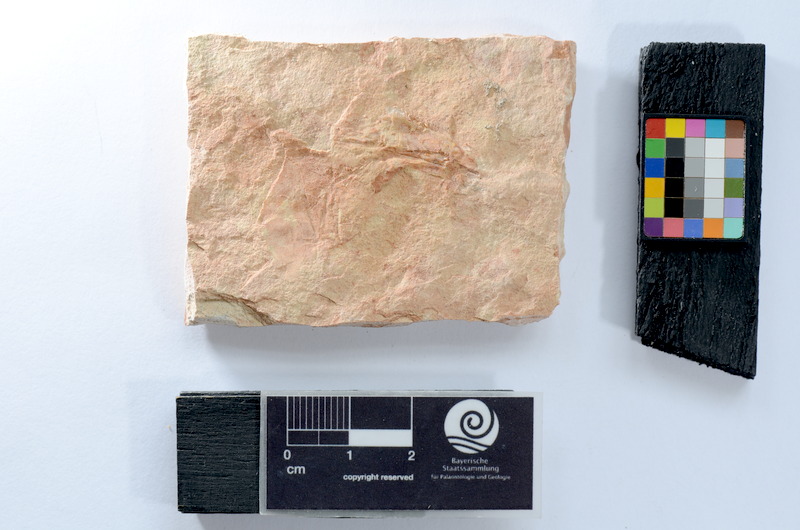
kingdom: Animalia
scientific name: Animalia
